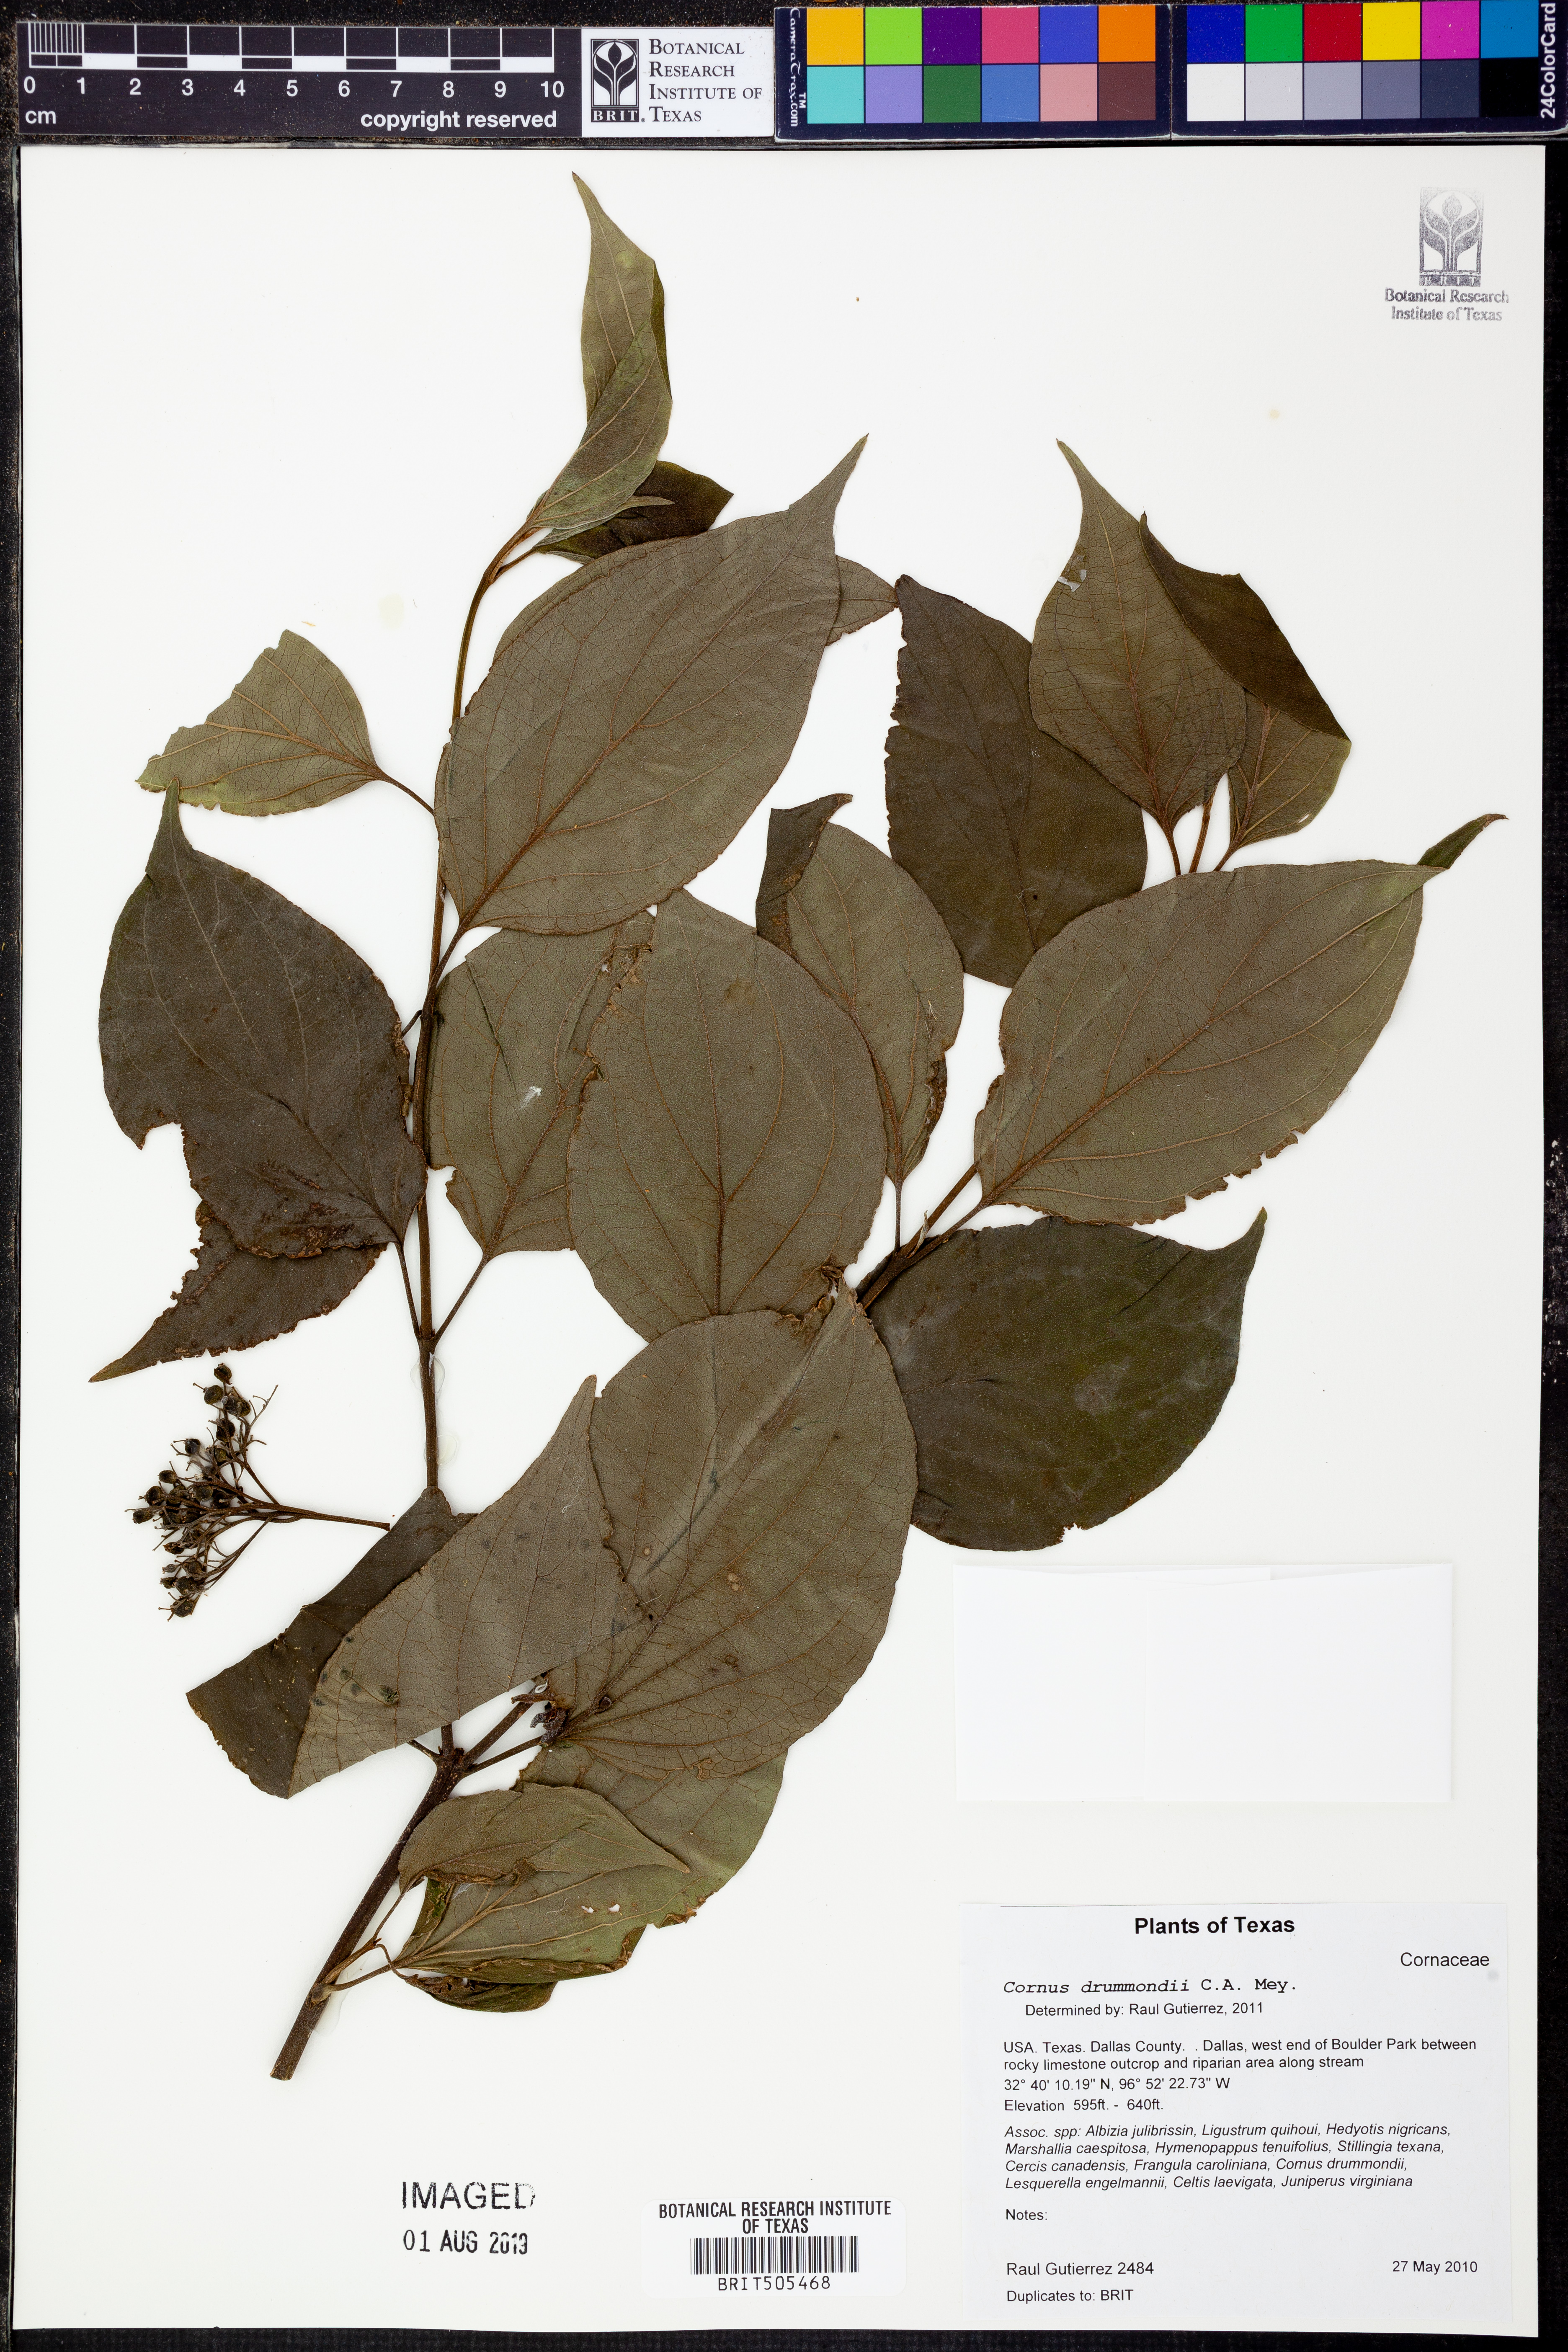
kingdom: Plantae
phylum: Tracheophyta
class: Magnoliopsida
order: Cornales
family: Cornaceae
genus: Cornus
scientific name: Cornus drummondii
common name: Rough-leaf dogwood
